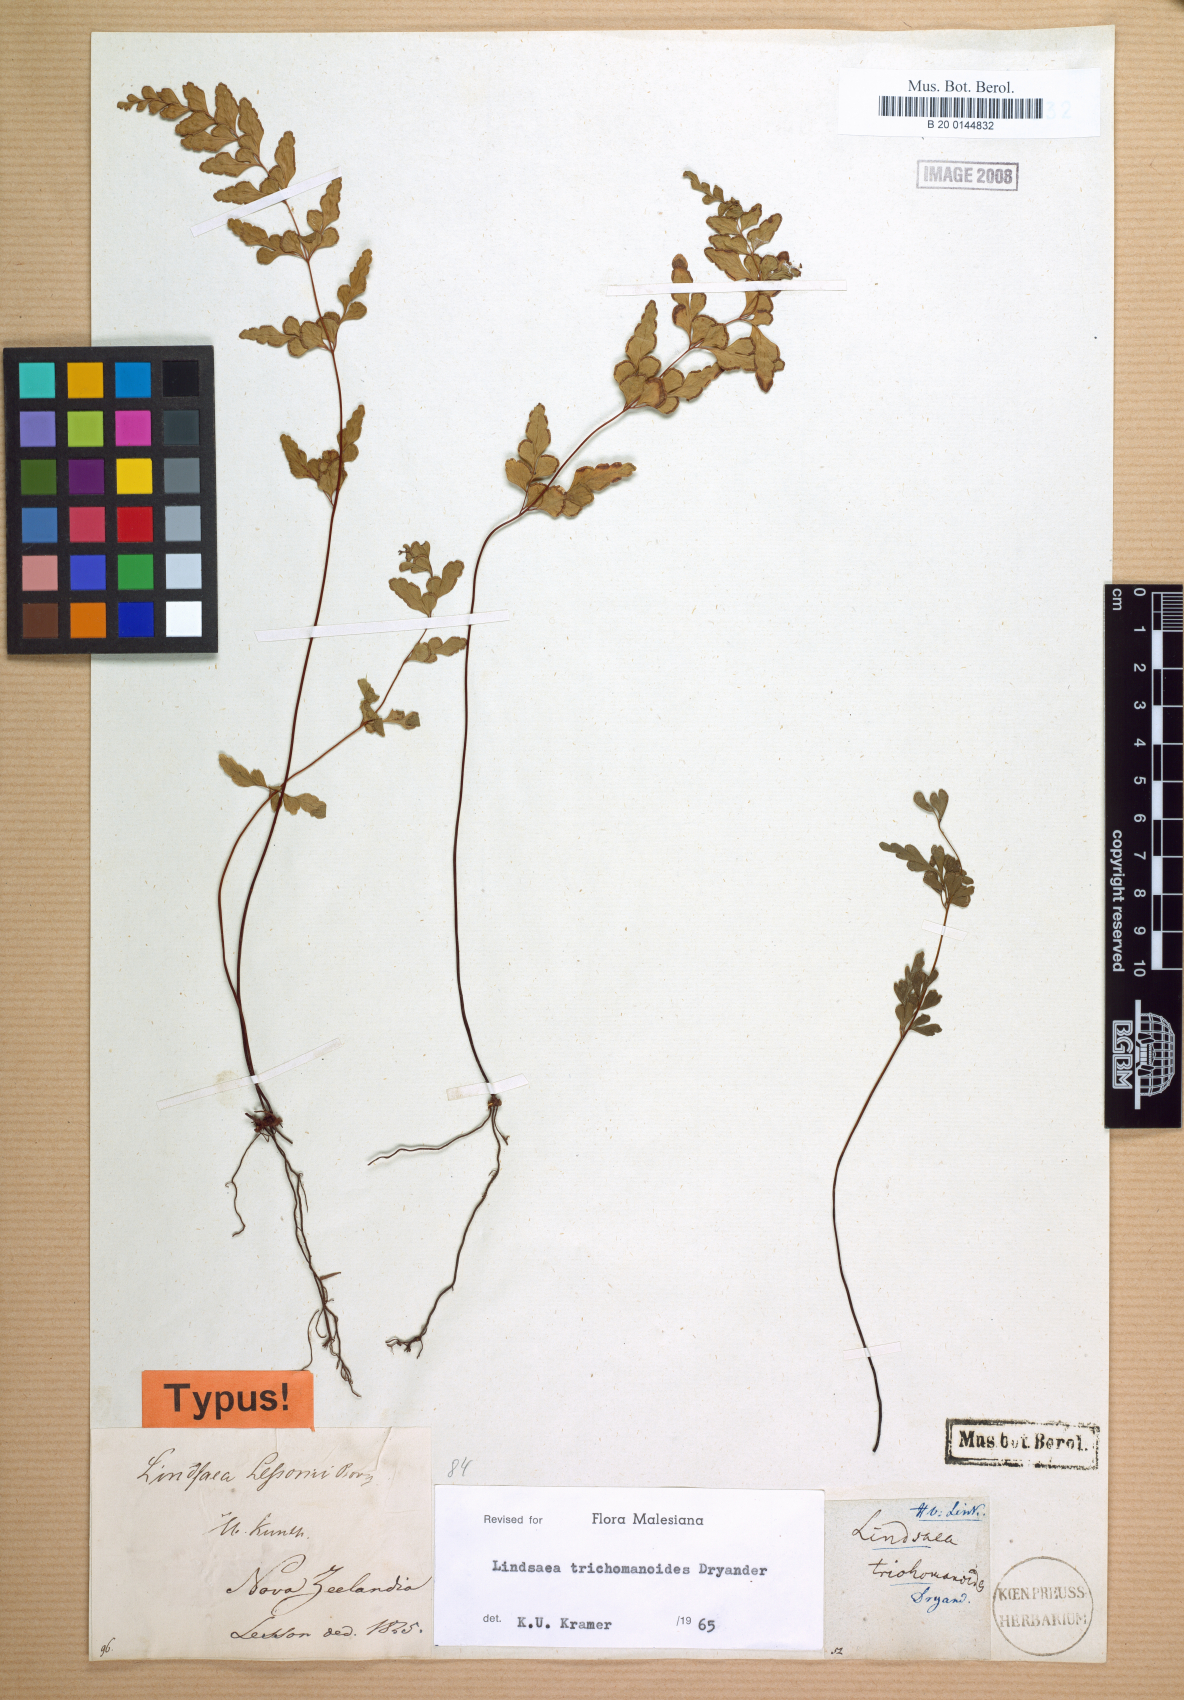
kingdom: Plantae
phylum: Tracheophyta
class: Polypodiopsida
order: Polypodiales
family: Lindsaeaceae
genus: Lindsaea
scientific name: Lindsaea
